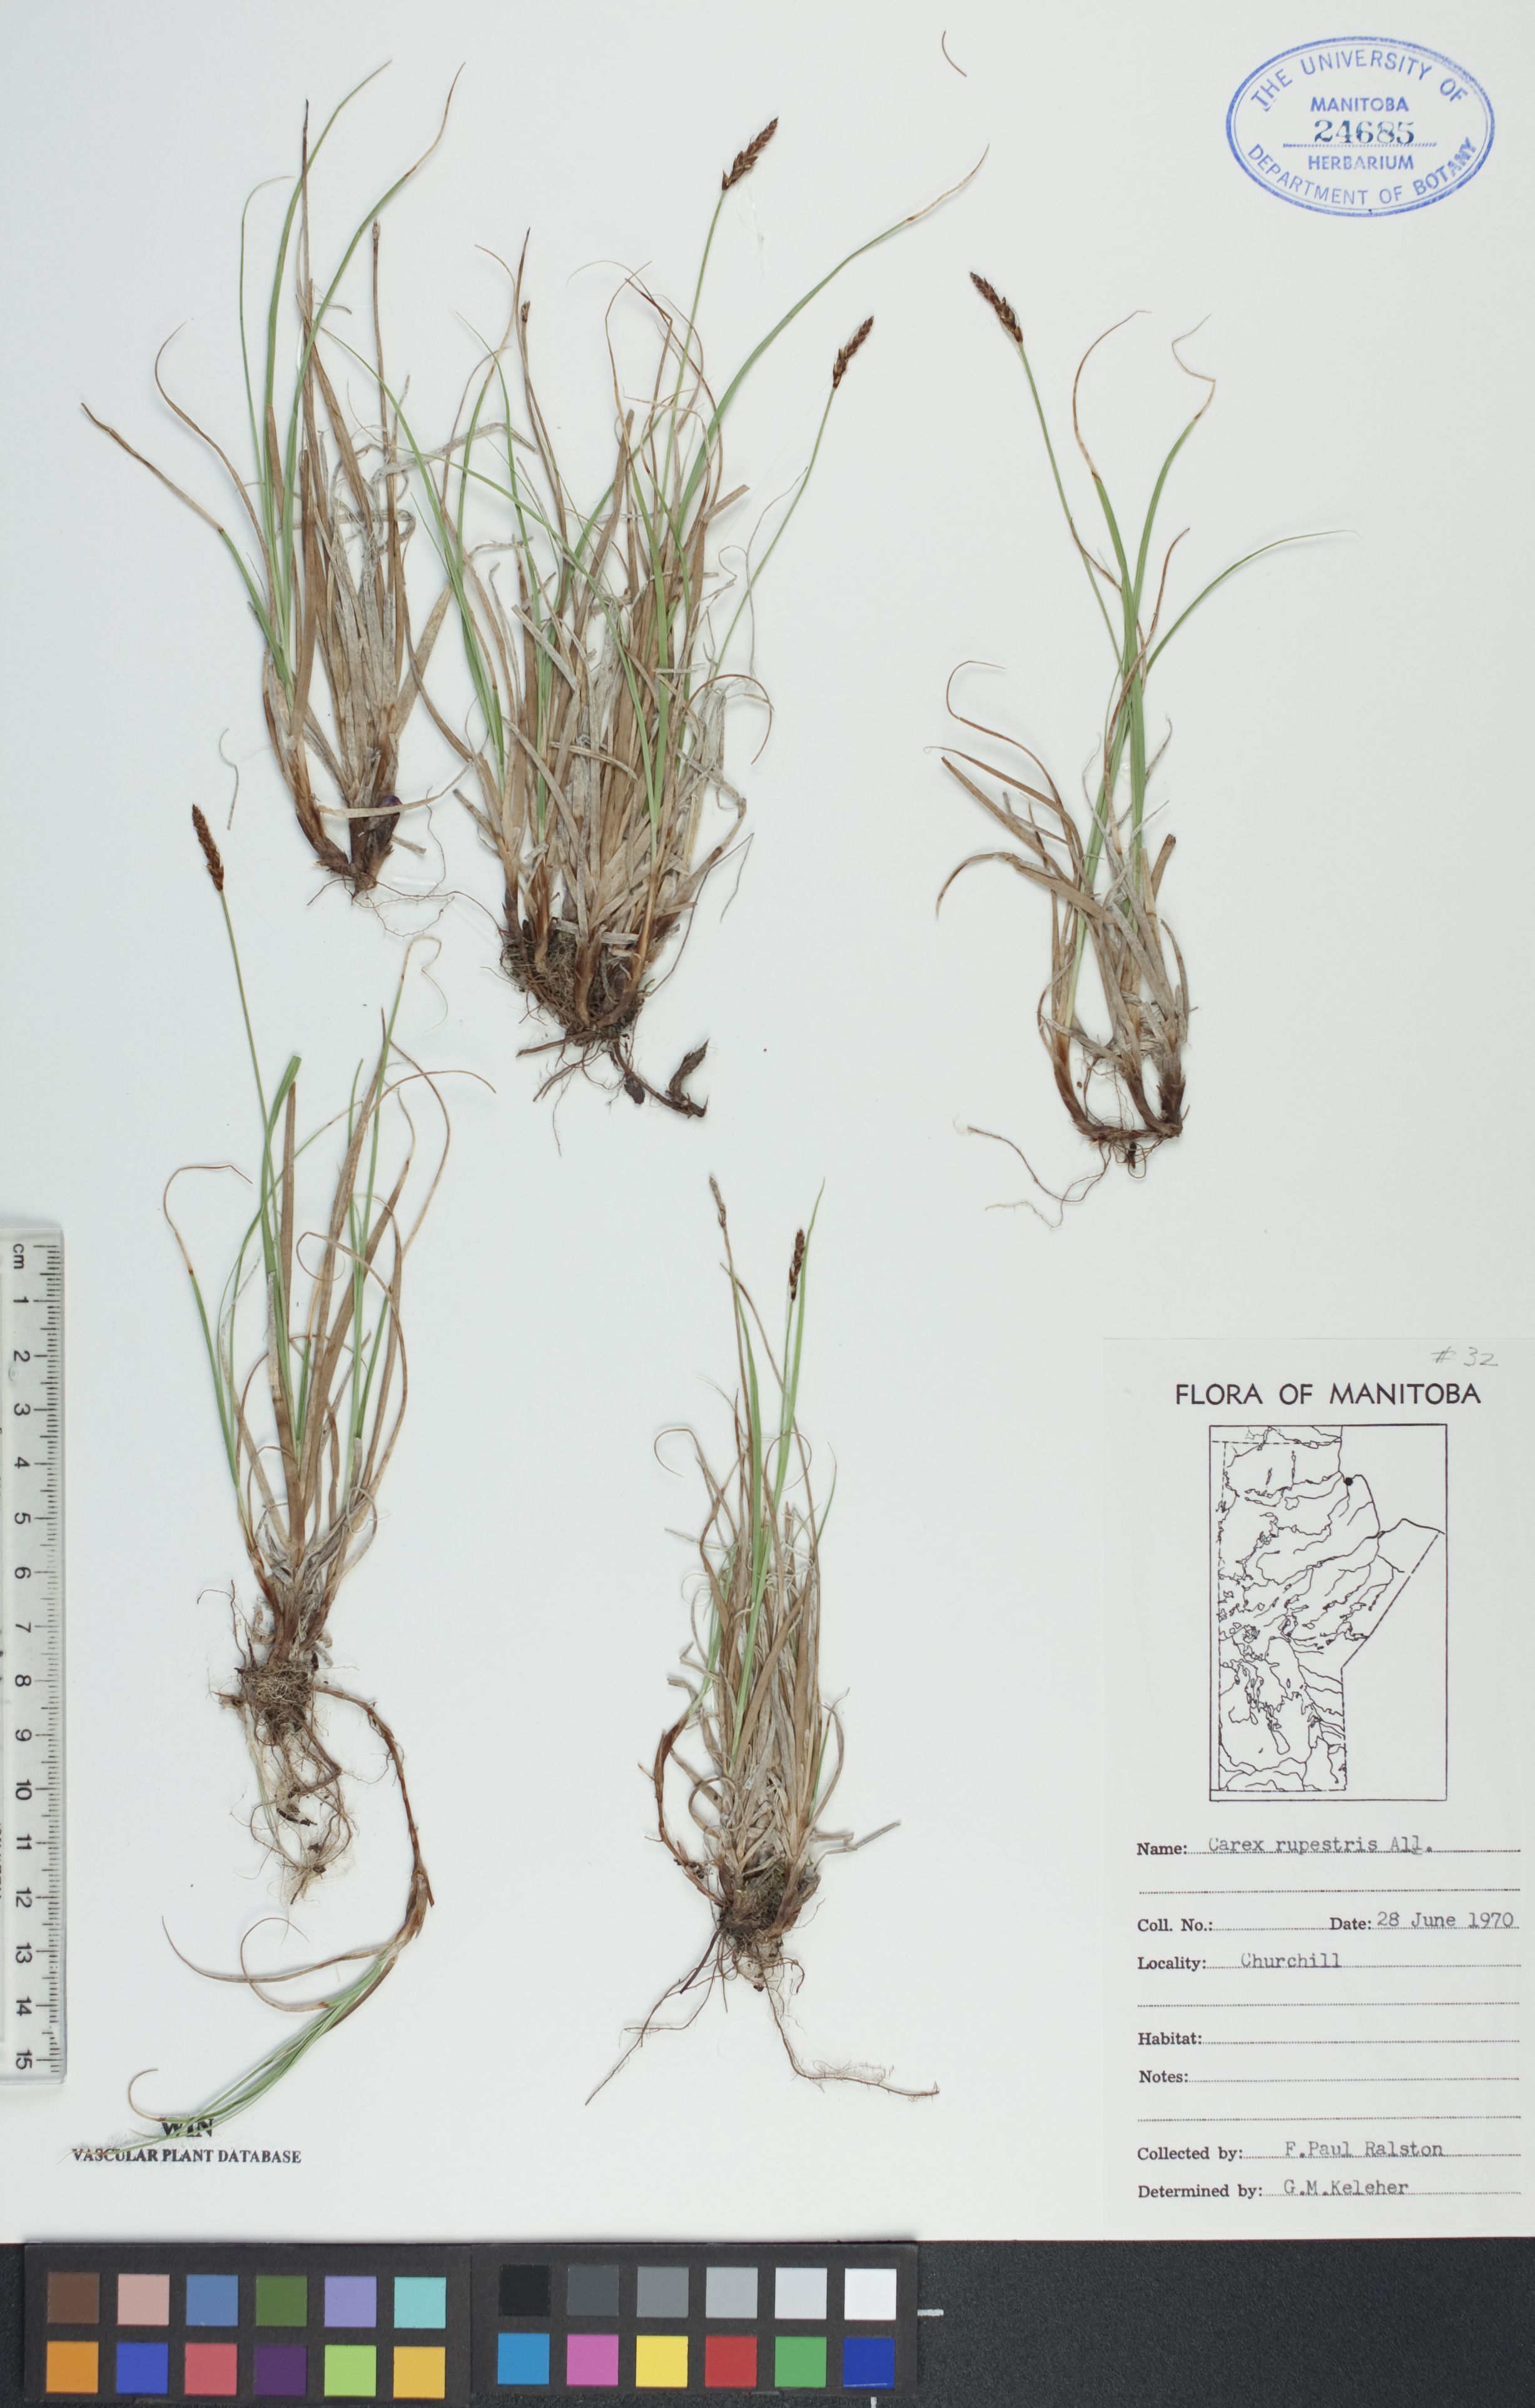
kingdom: Plantae
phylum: Tracheophyta
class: Liliopsida
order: Poales
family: Cyperaceae
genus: Carex
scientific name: Carex rupestris
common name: Rock sedge
